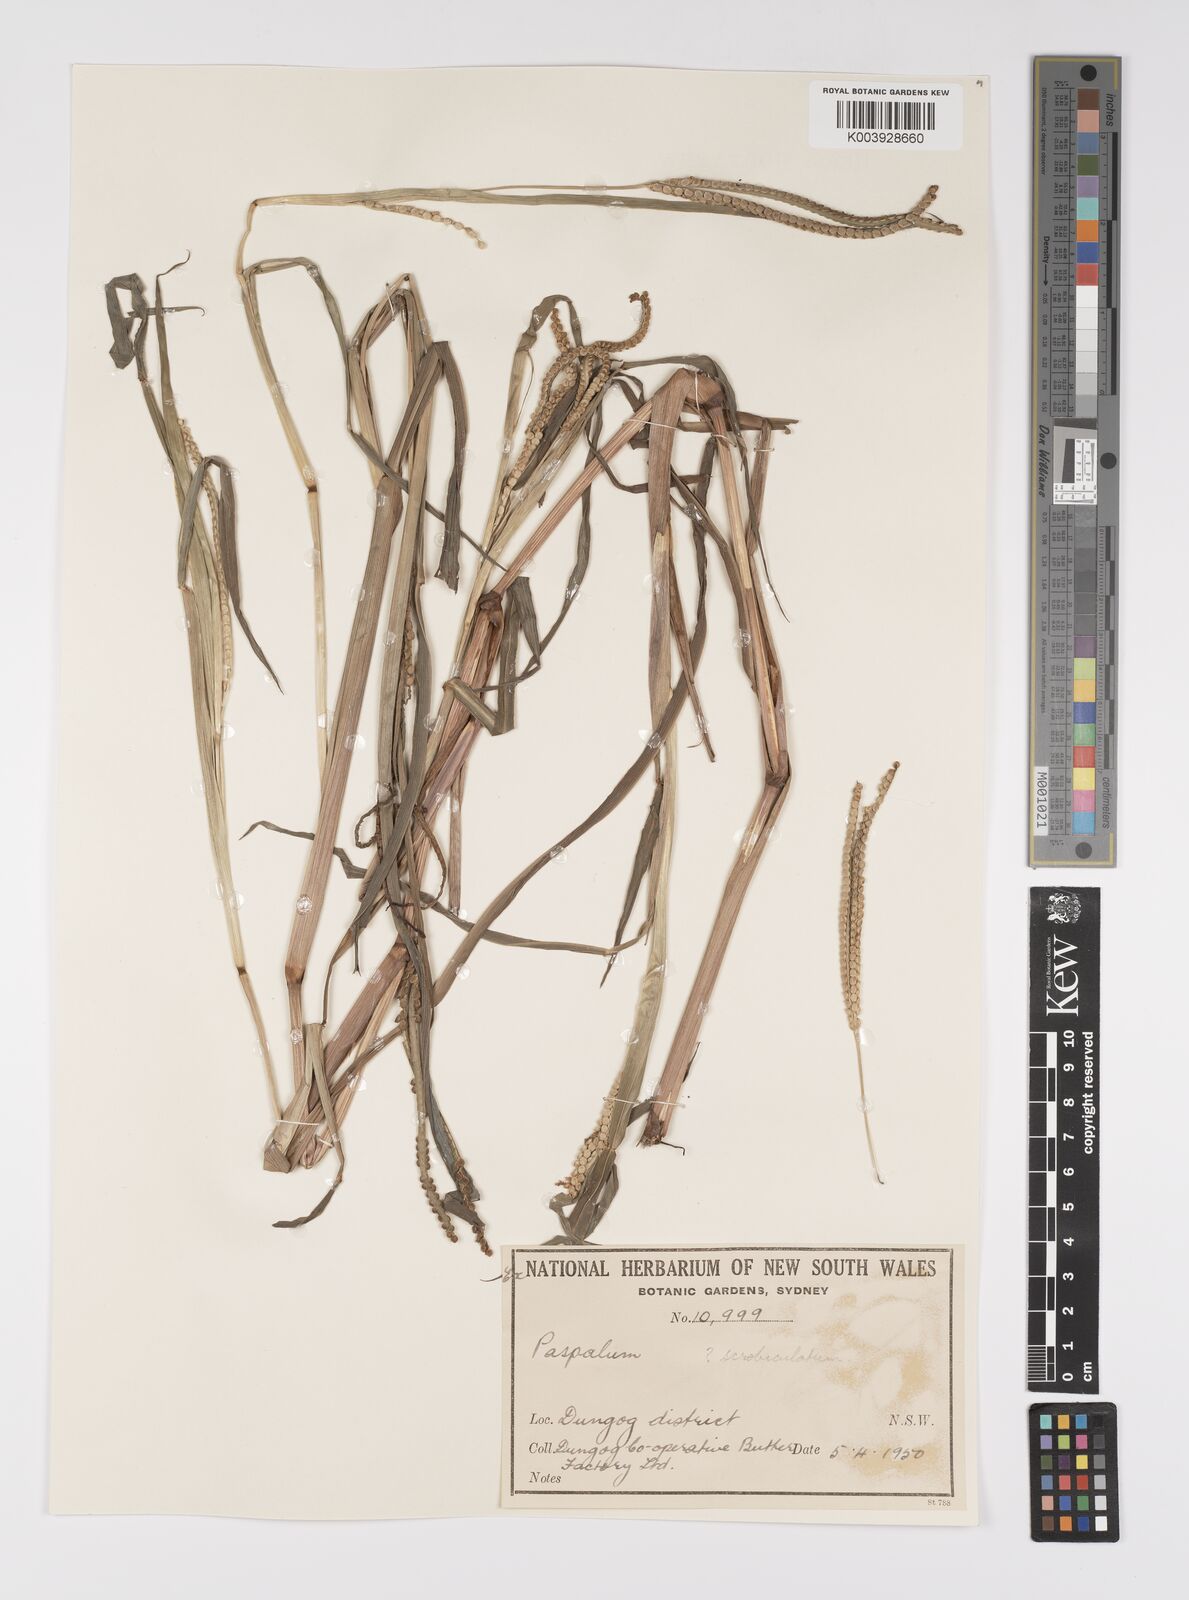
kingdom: Plantae
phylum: Tracheophyta
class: Liliopsida
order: Poales
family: Poaceae
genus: Paspalum
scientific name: Paspalum scrobiculatum
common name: Kodo millet
